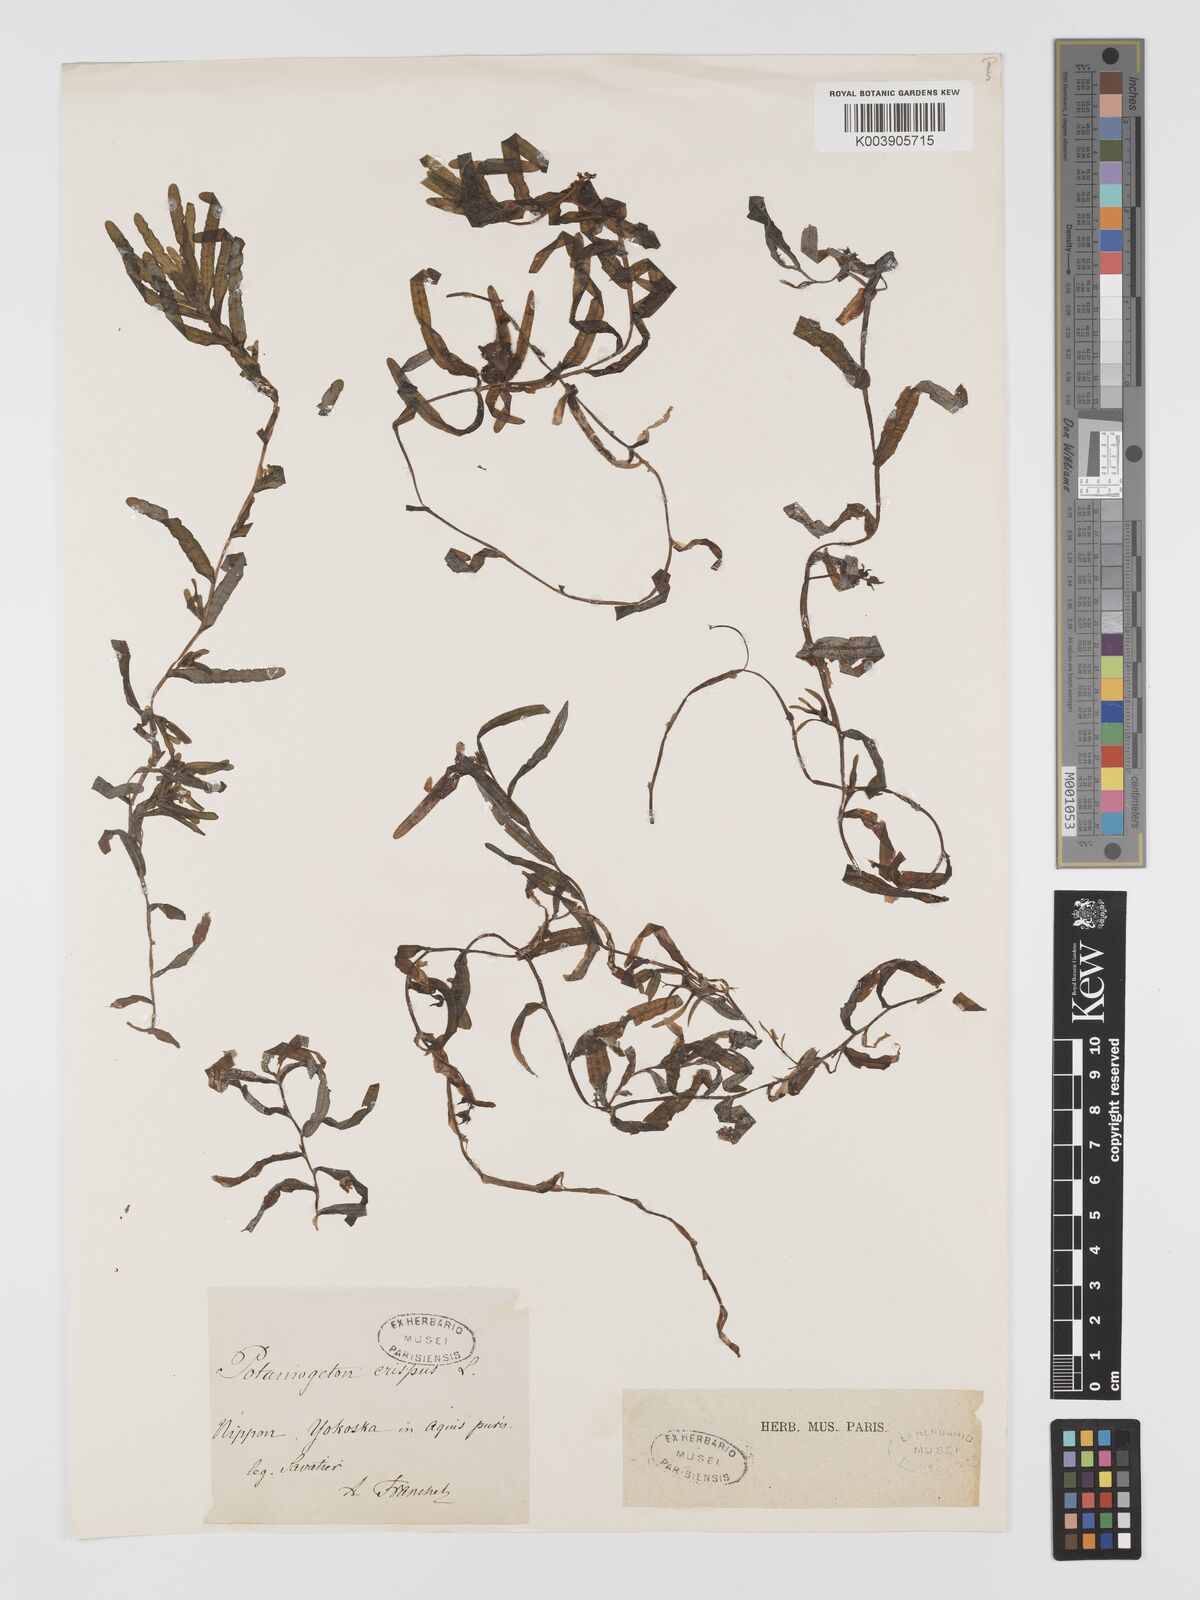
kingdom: Plantae
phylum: Tracheophyta
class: Liliopsida
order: Alismatales
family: Potamogetonaceae
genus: Potamogeton
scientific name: Potamogeton crispus
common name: Curled pondweed
